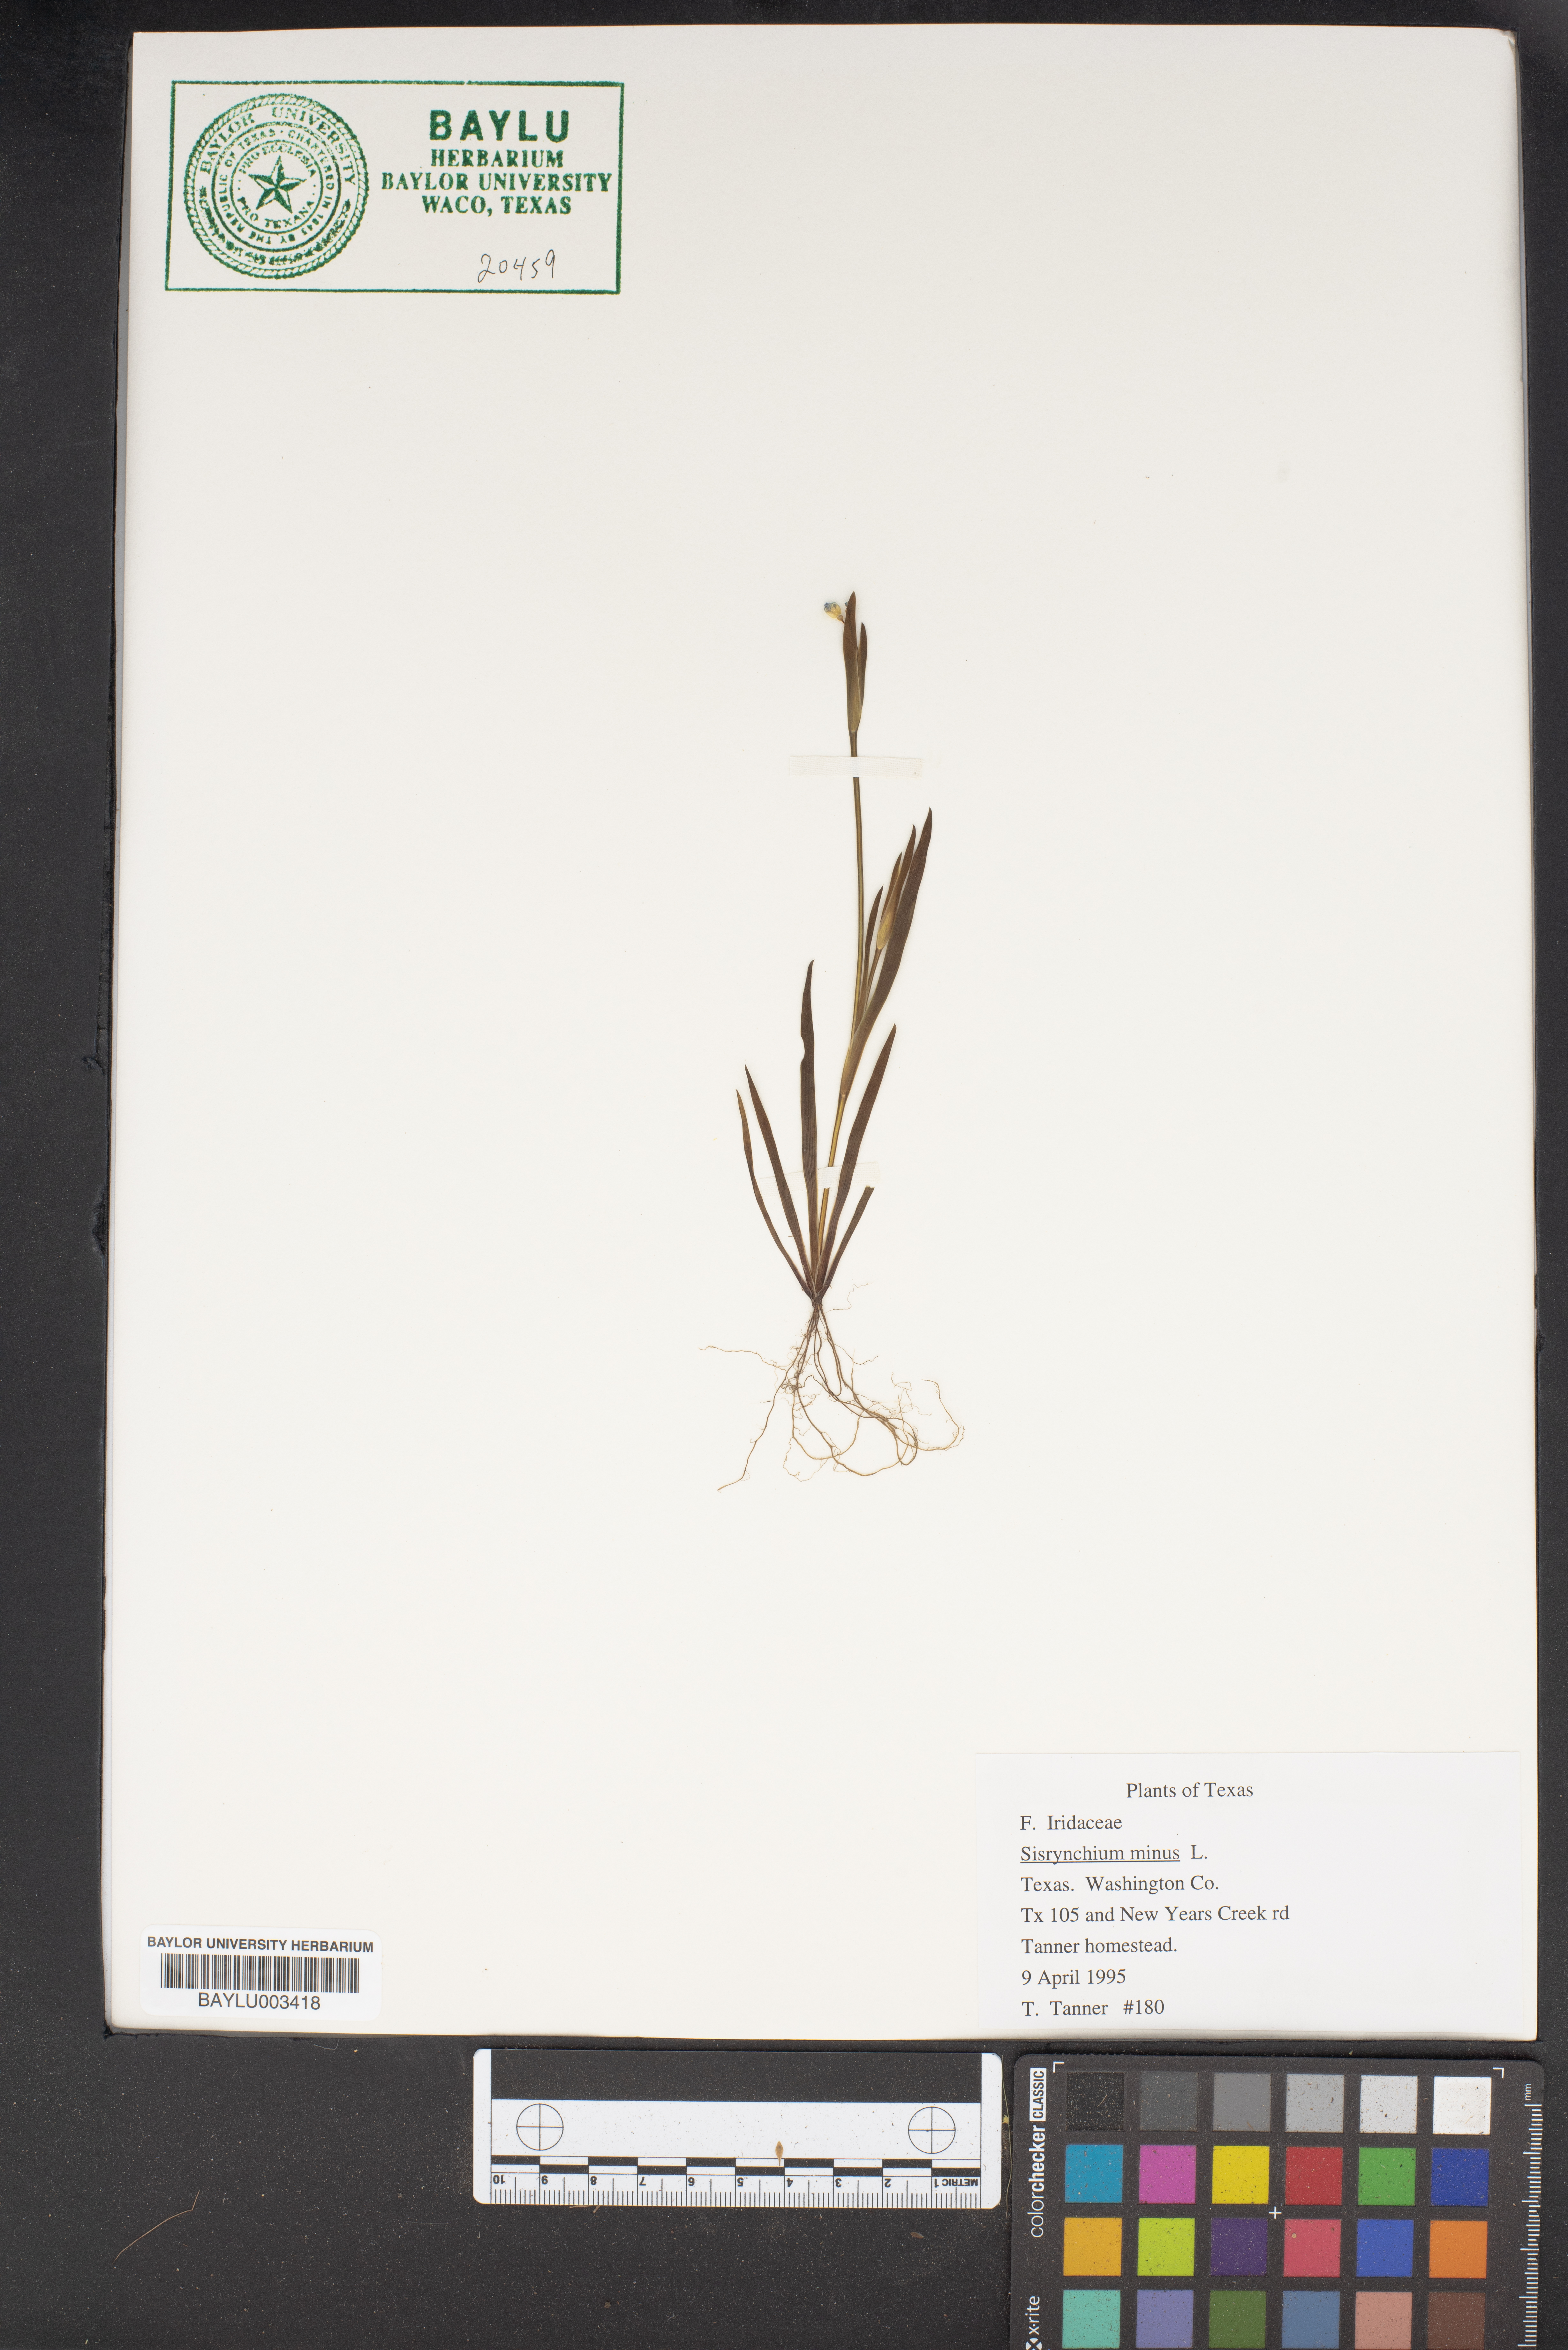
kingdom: Plantae
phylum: Tracheophyta
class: Liliopsida
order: Asparagales
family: Iridaceae
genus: Sisyrinchium
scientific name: Sisyrinchium minus
